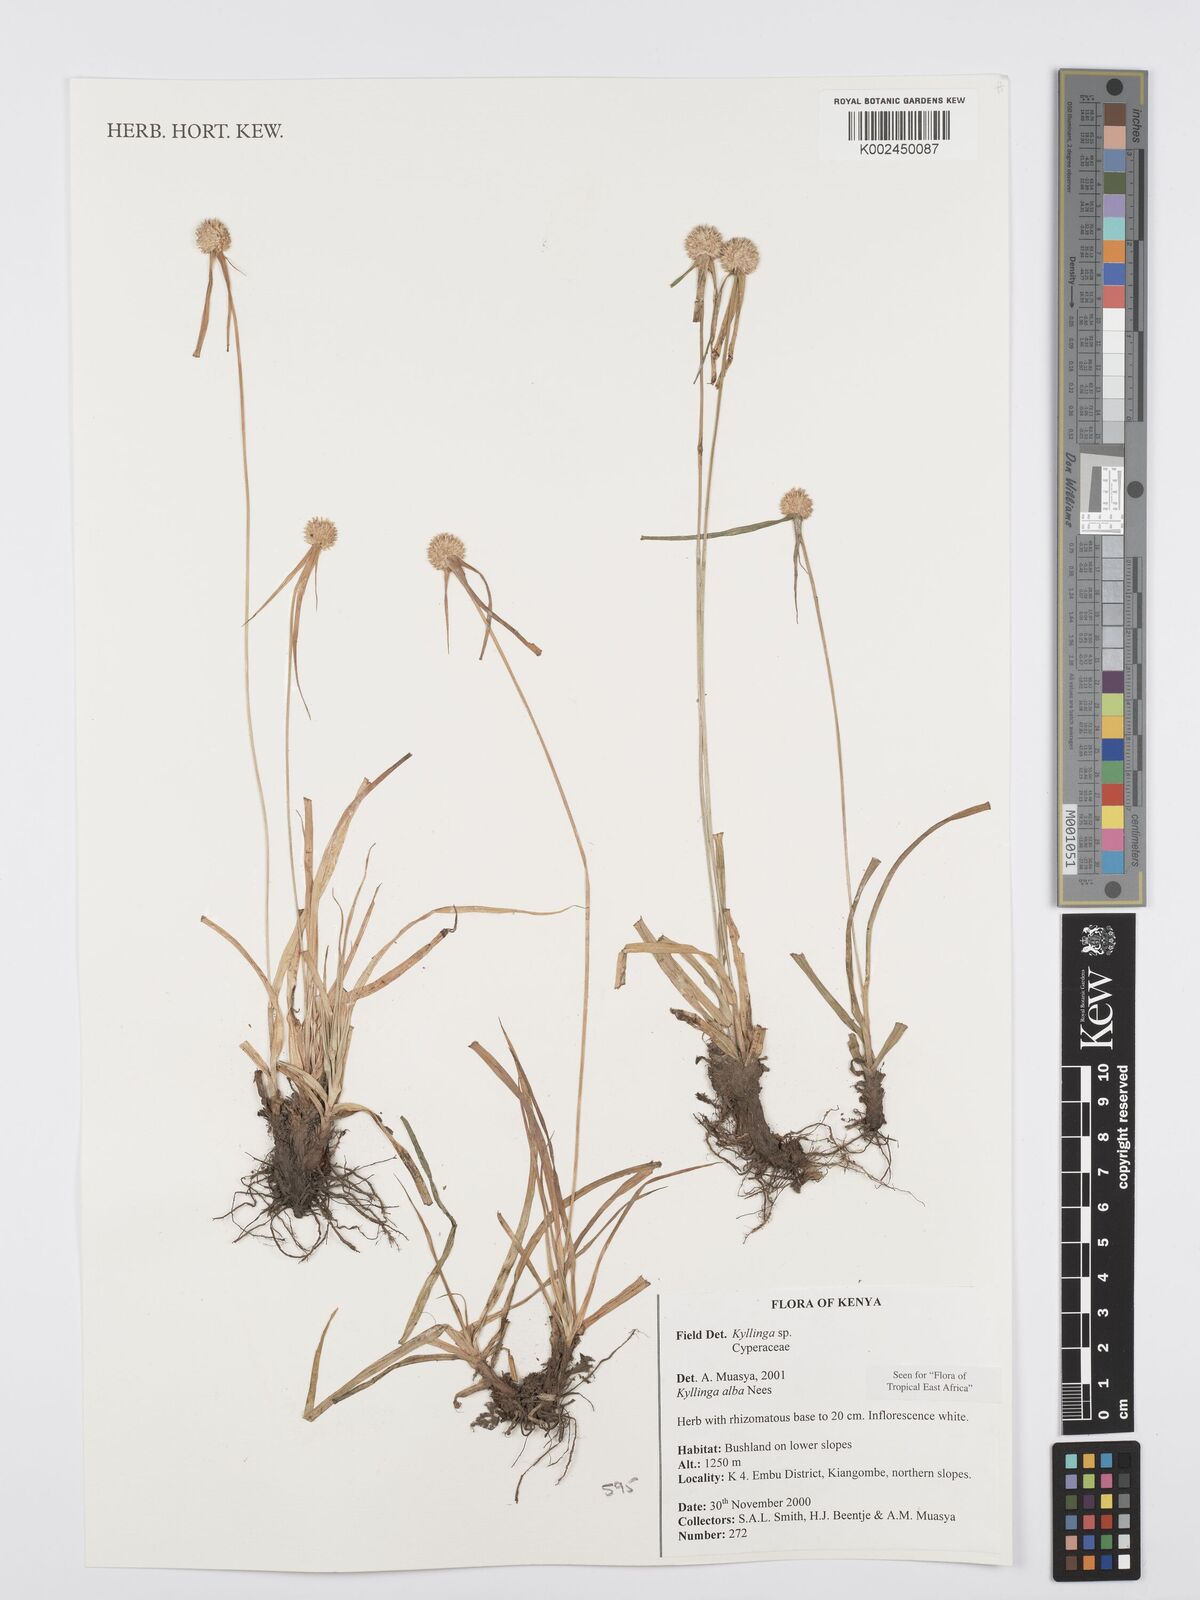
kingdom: Plantae
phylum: Tracheophyta
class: Liliopsida
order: Poales
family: Cyperaceae
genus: Cyperus
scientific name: Cyperus
